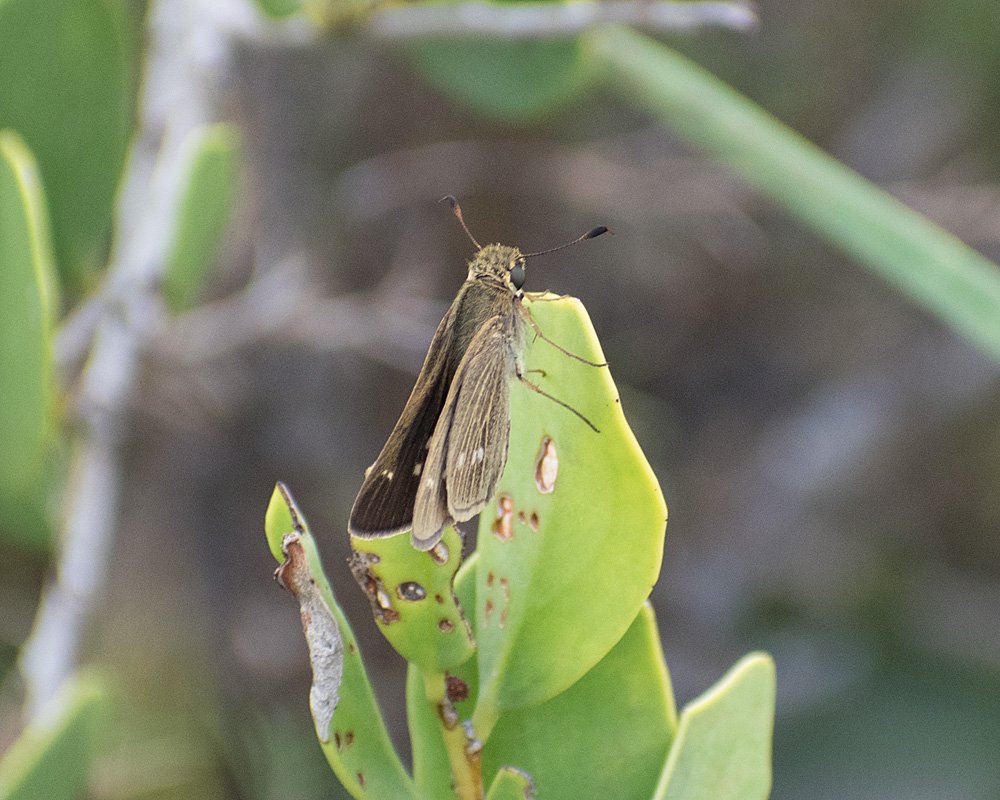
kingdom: Animalia
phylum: Arthropoda
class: Insecta
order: Lepidoptera
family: Hesperiidae
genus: Panoquina
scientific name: Panoquina panoquinoides
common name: Obscure Skipper
